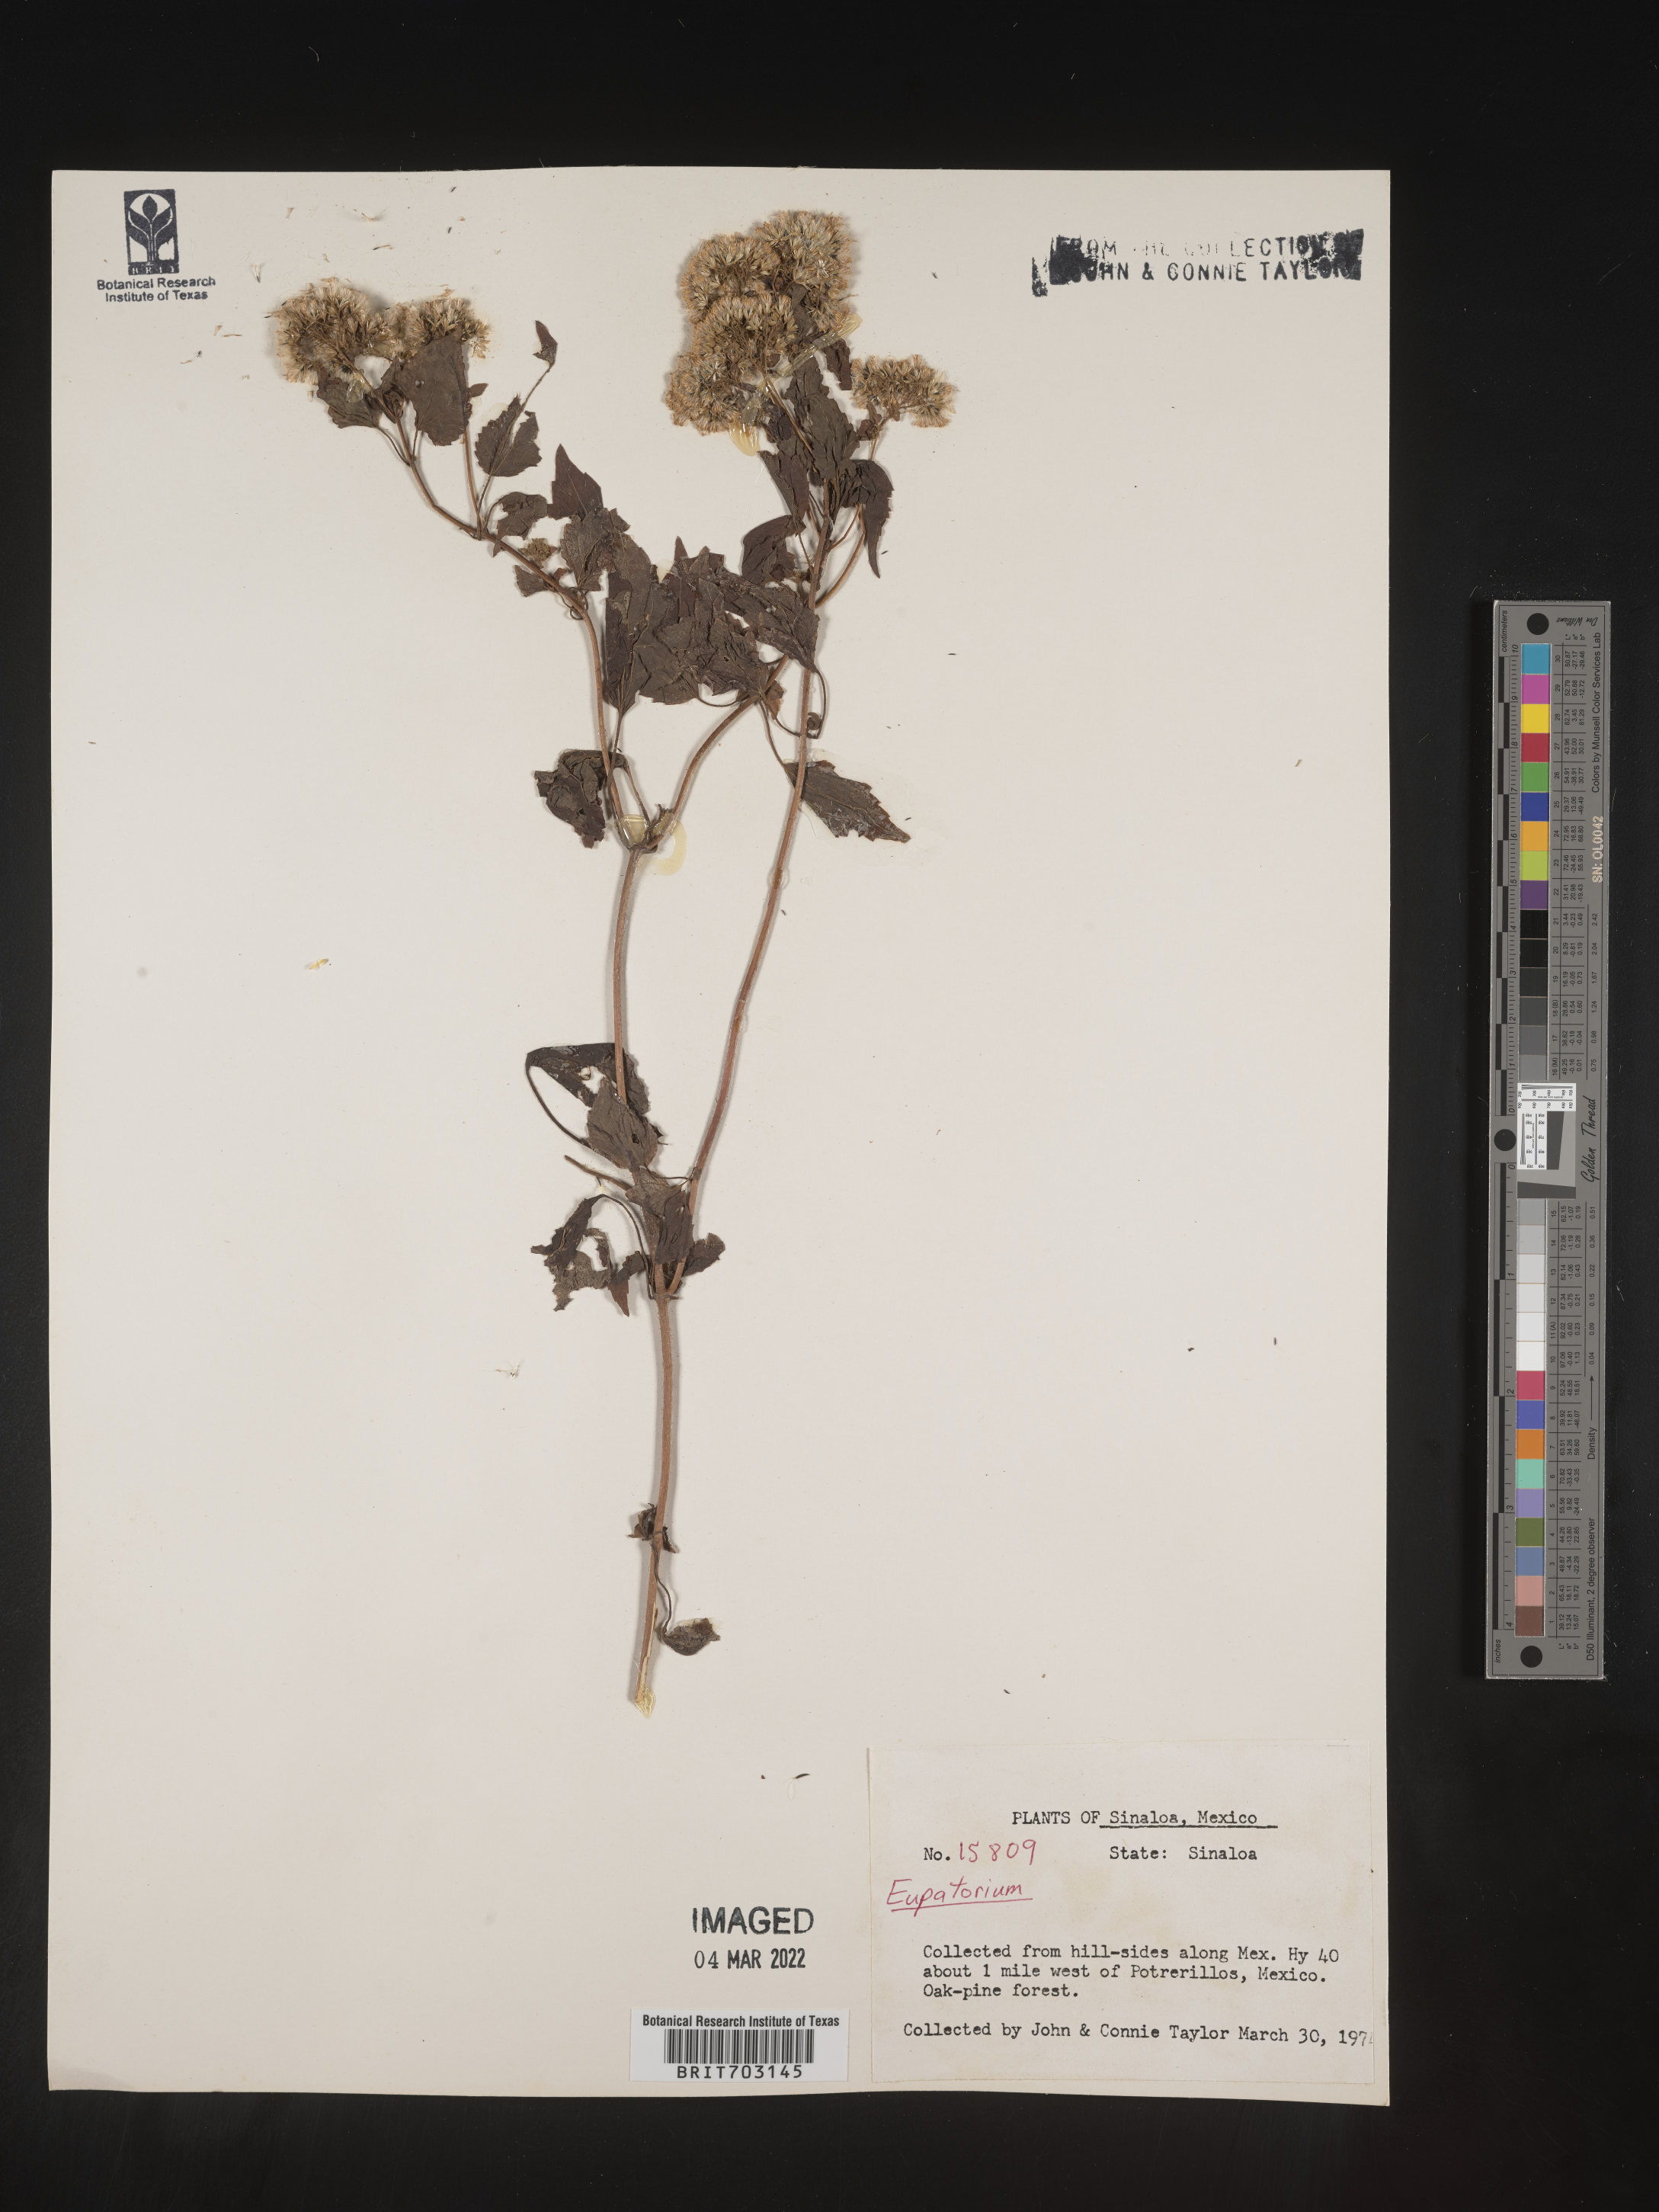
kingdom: Plantae
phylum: Tracheophyta
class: Magnoliopsida
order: Asterales
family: Asteraceae
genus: Eupatorium
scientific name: Eupatorium
